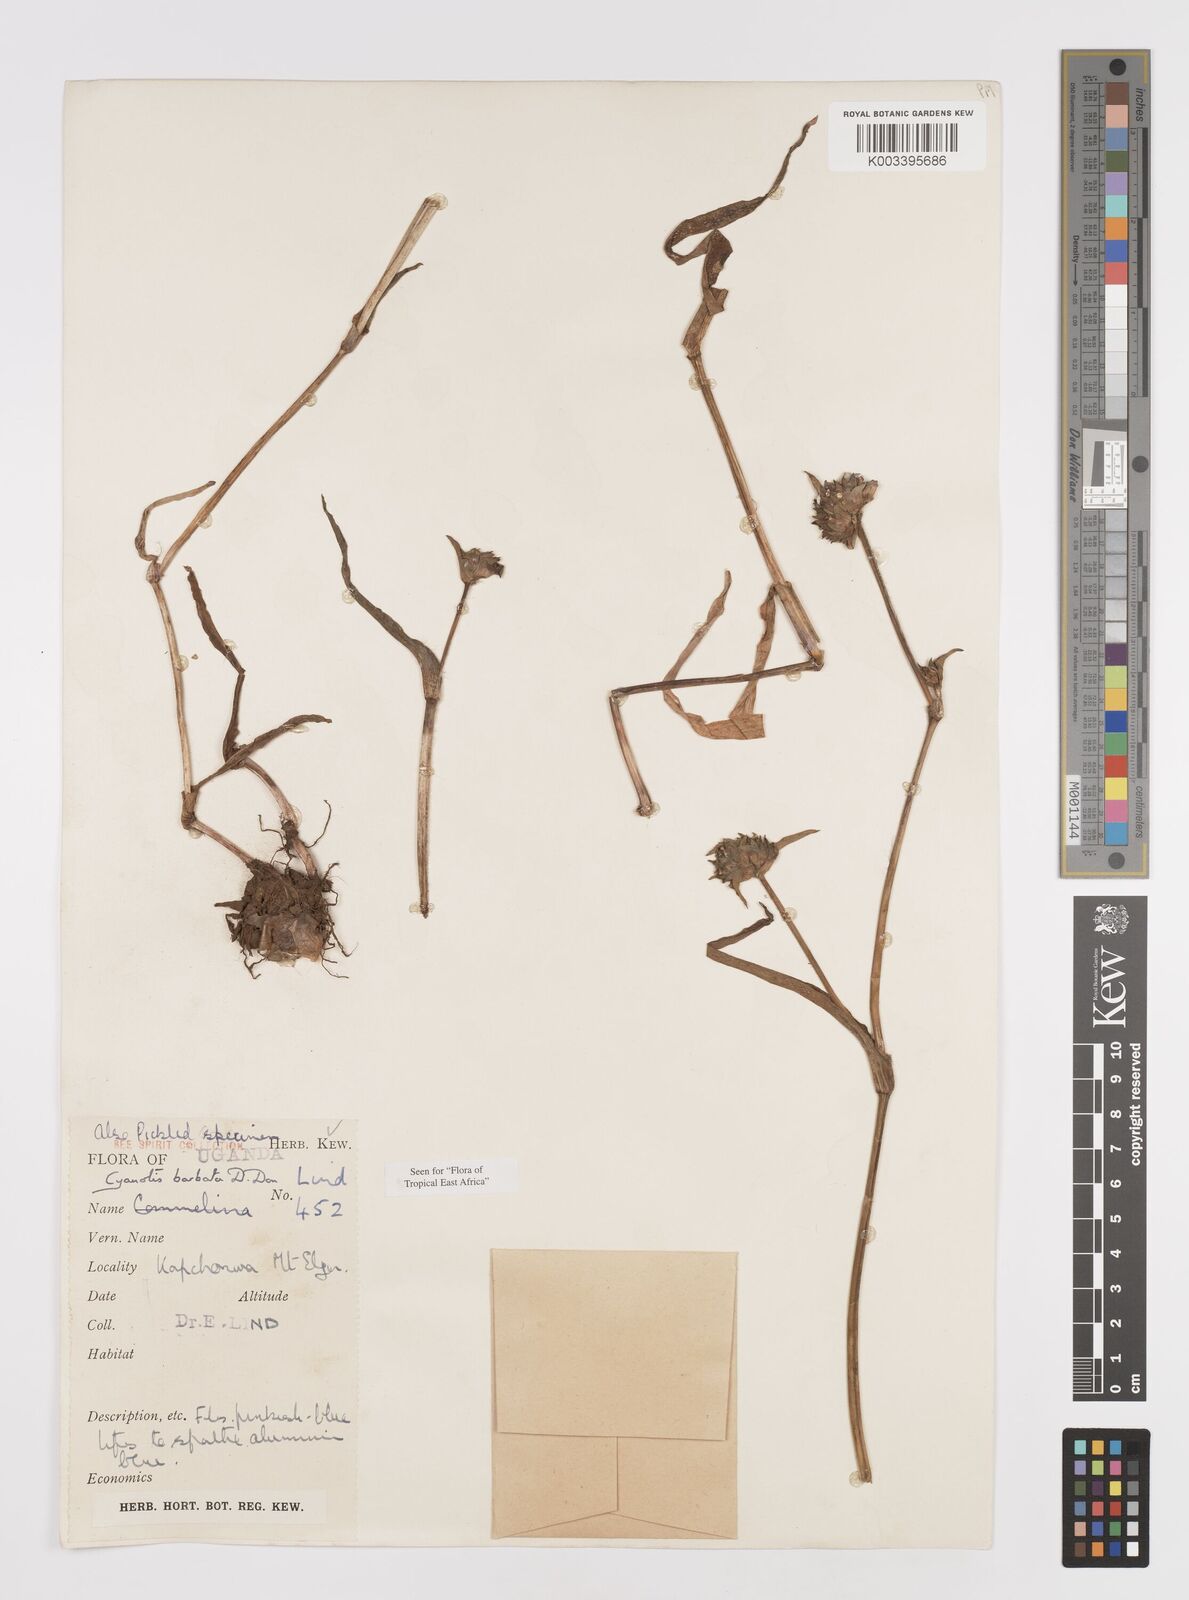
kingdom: Plantae
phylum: Tracheophyta
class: Liliopsida
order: Commelinales
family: Commelinaceae
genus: Cyanotis
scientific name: Cyanotis vaga
